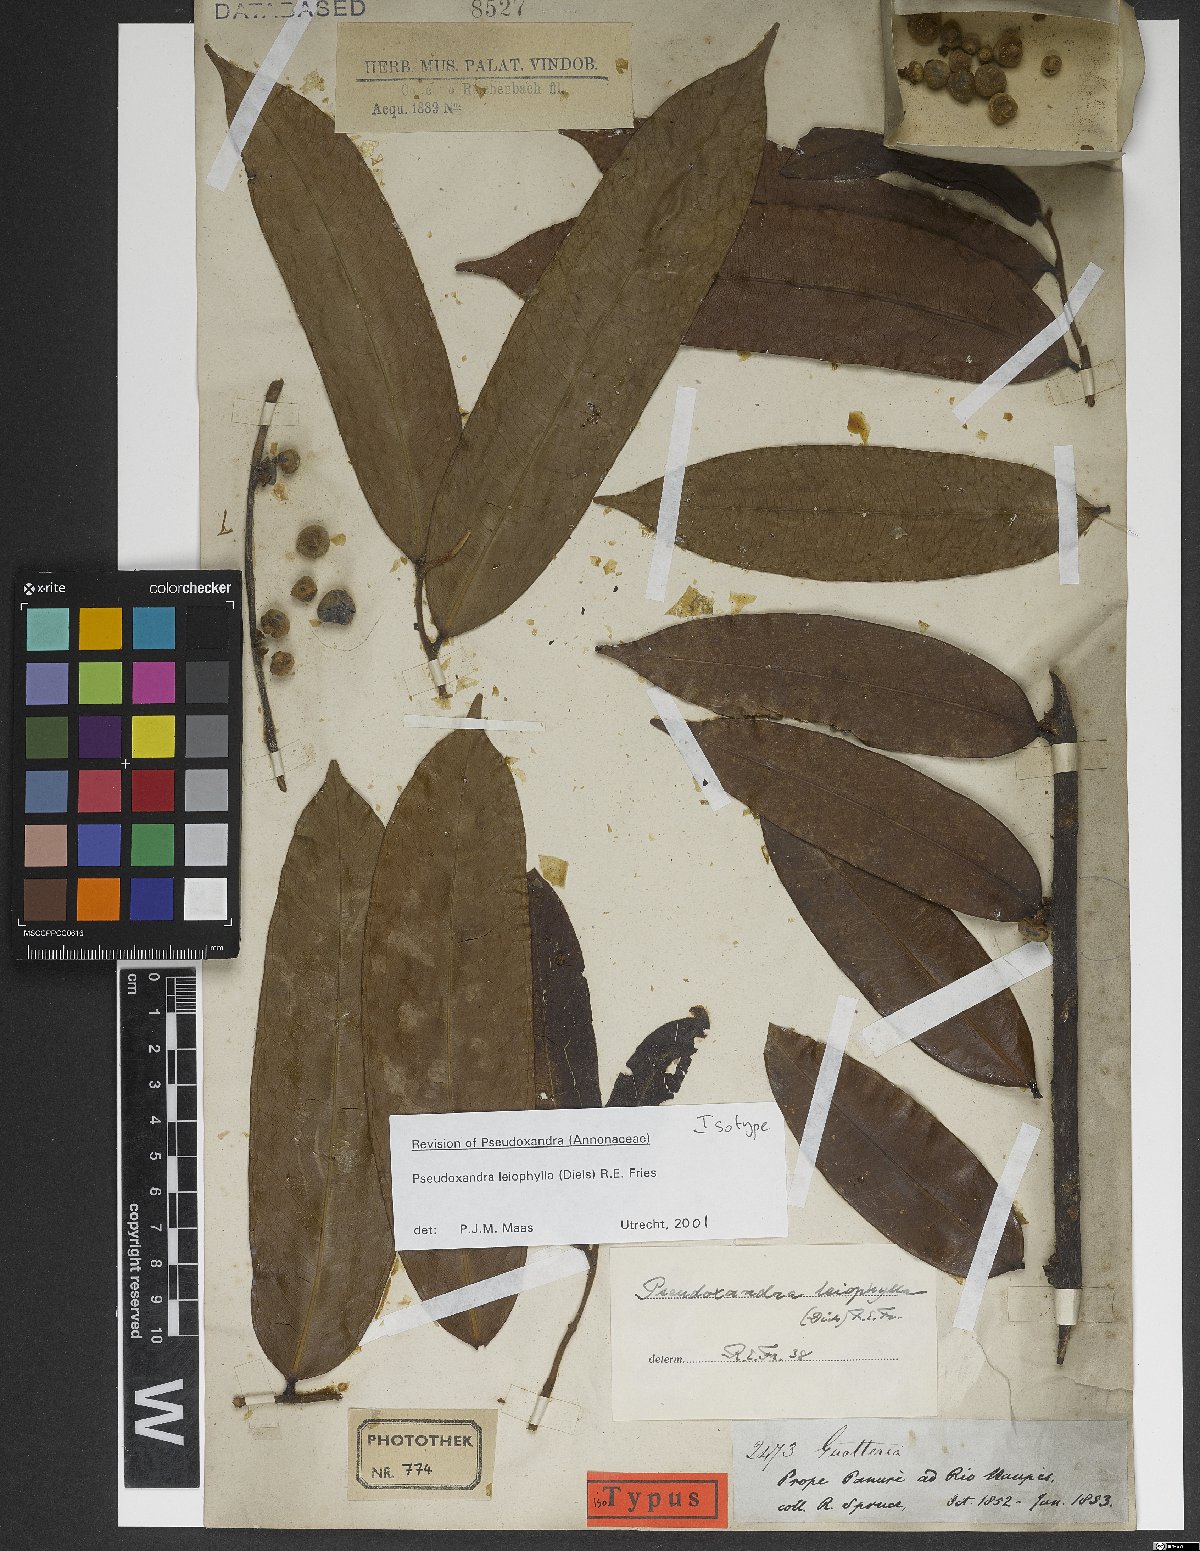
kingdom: Plantae
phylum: Tracheophyta
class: Magnoliopsida
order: Magnoliales
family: Annonaceae
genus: Pseudoxandra
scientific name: Pseudoxandra leiophylla
